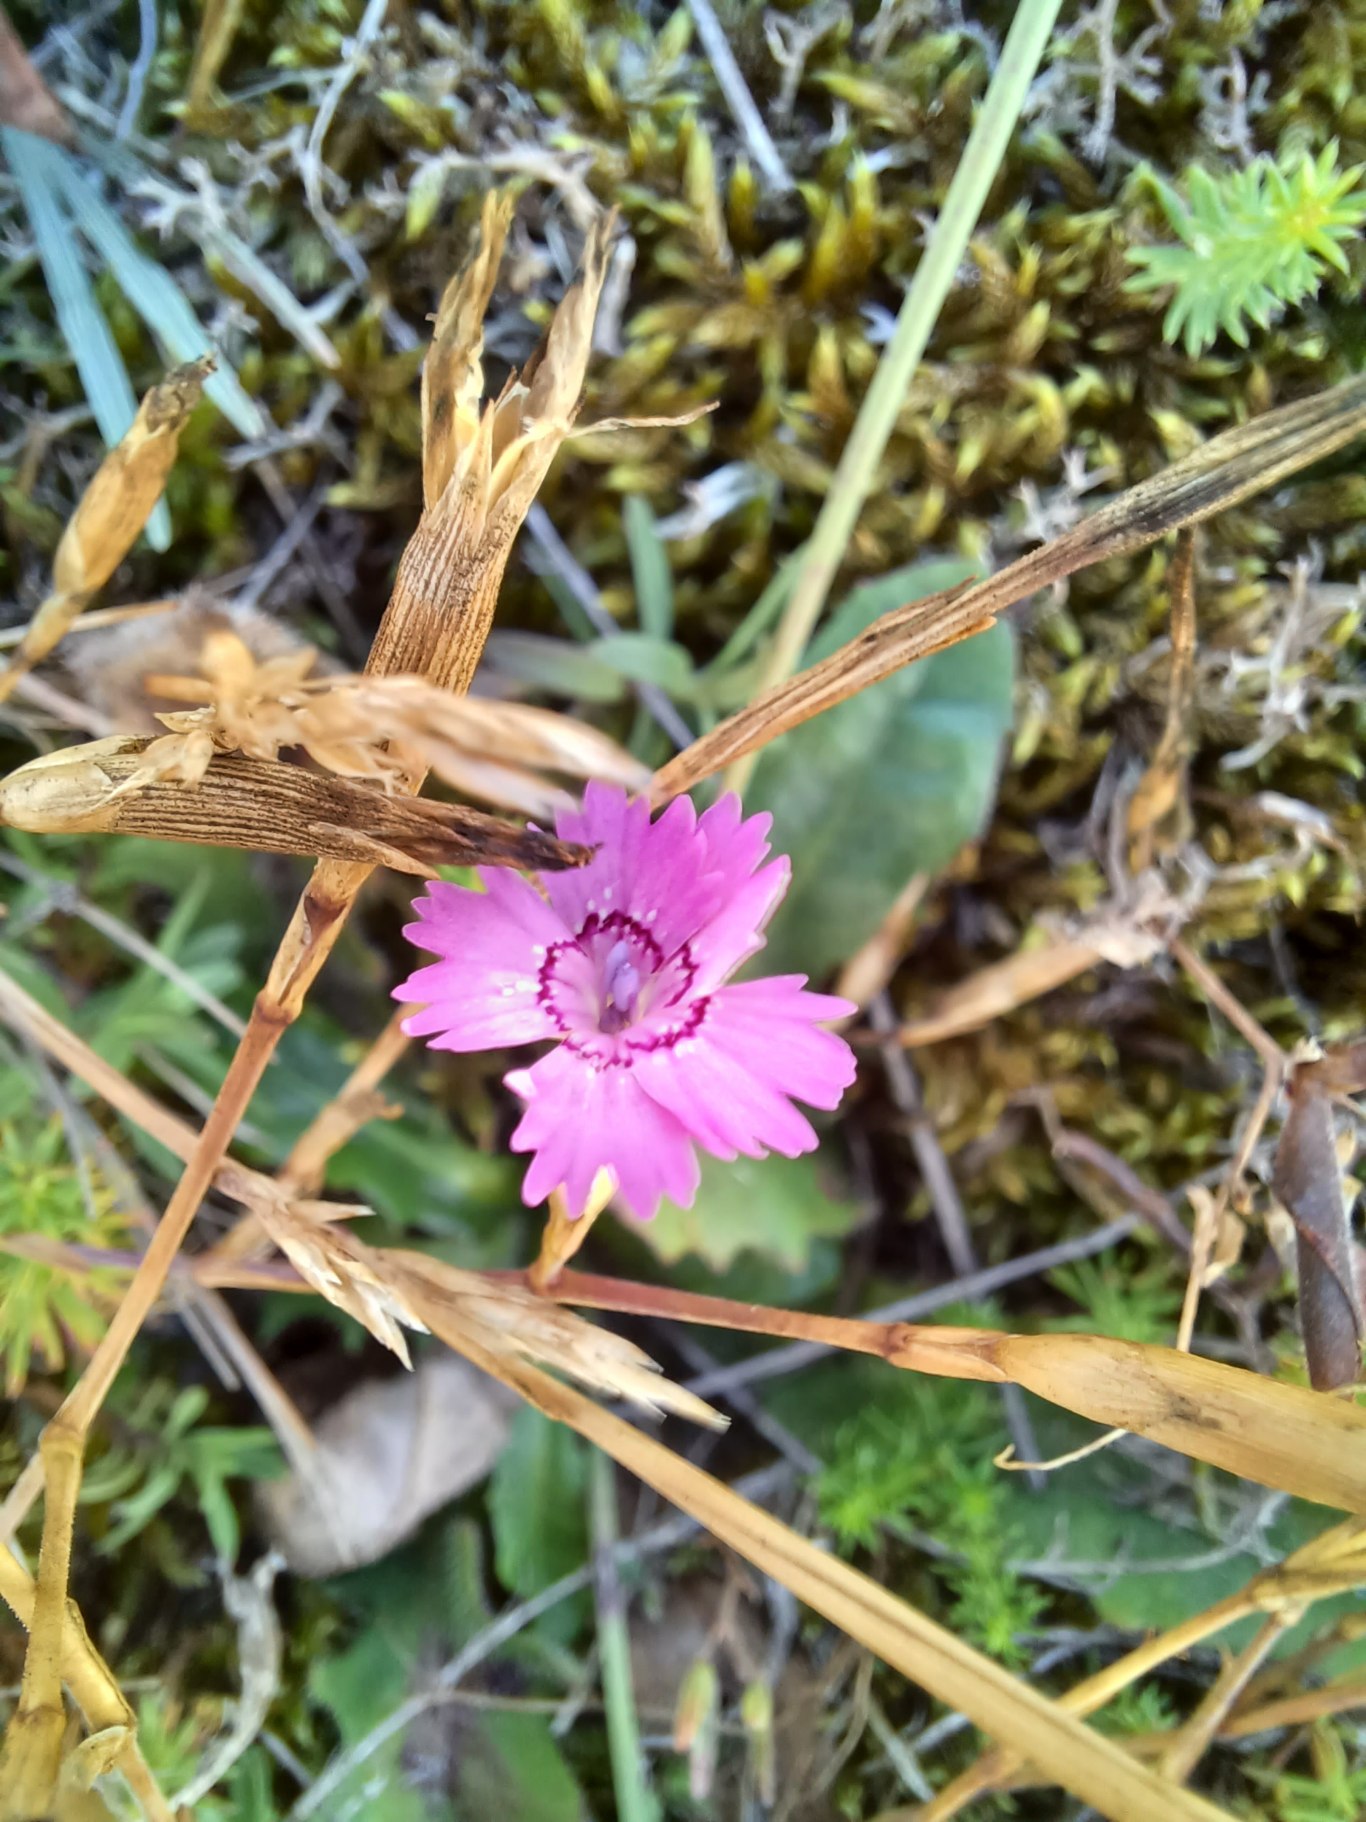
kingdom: Plantae
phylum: Tracheophyta
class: Magnoliopsida
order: Caryophyllales
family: Caryophyllaceae
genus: Dianthus
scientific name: Dianthus deltoides
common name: Bakke-nellike
